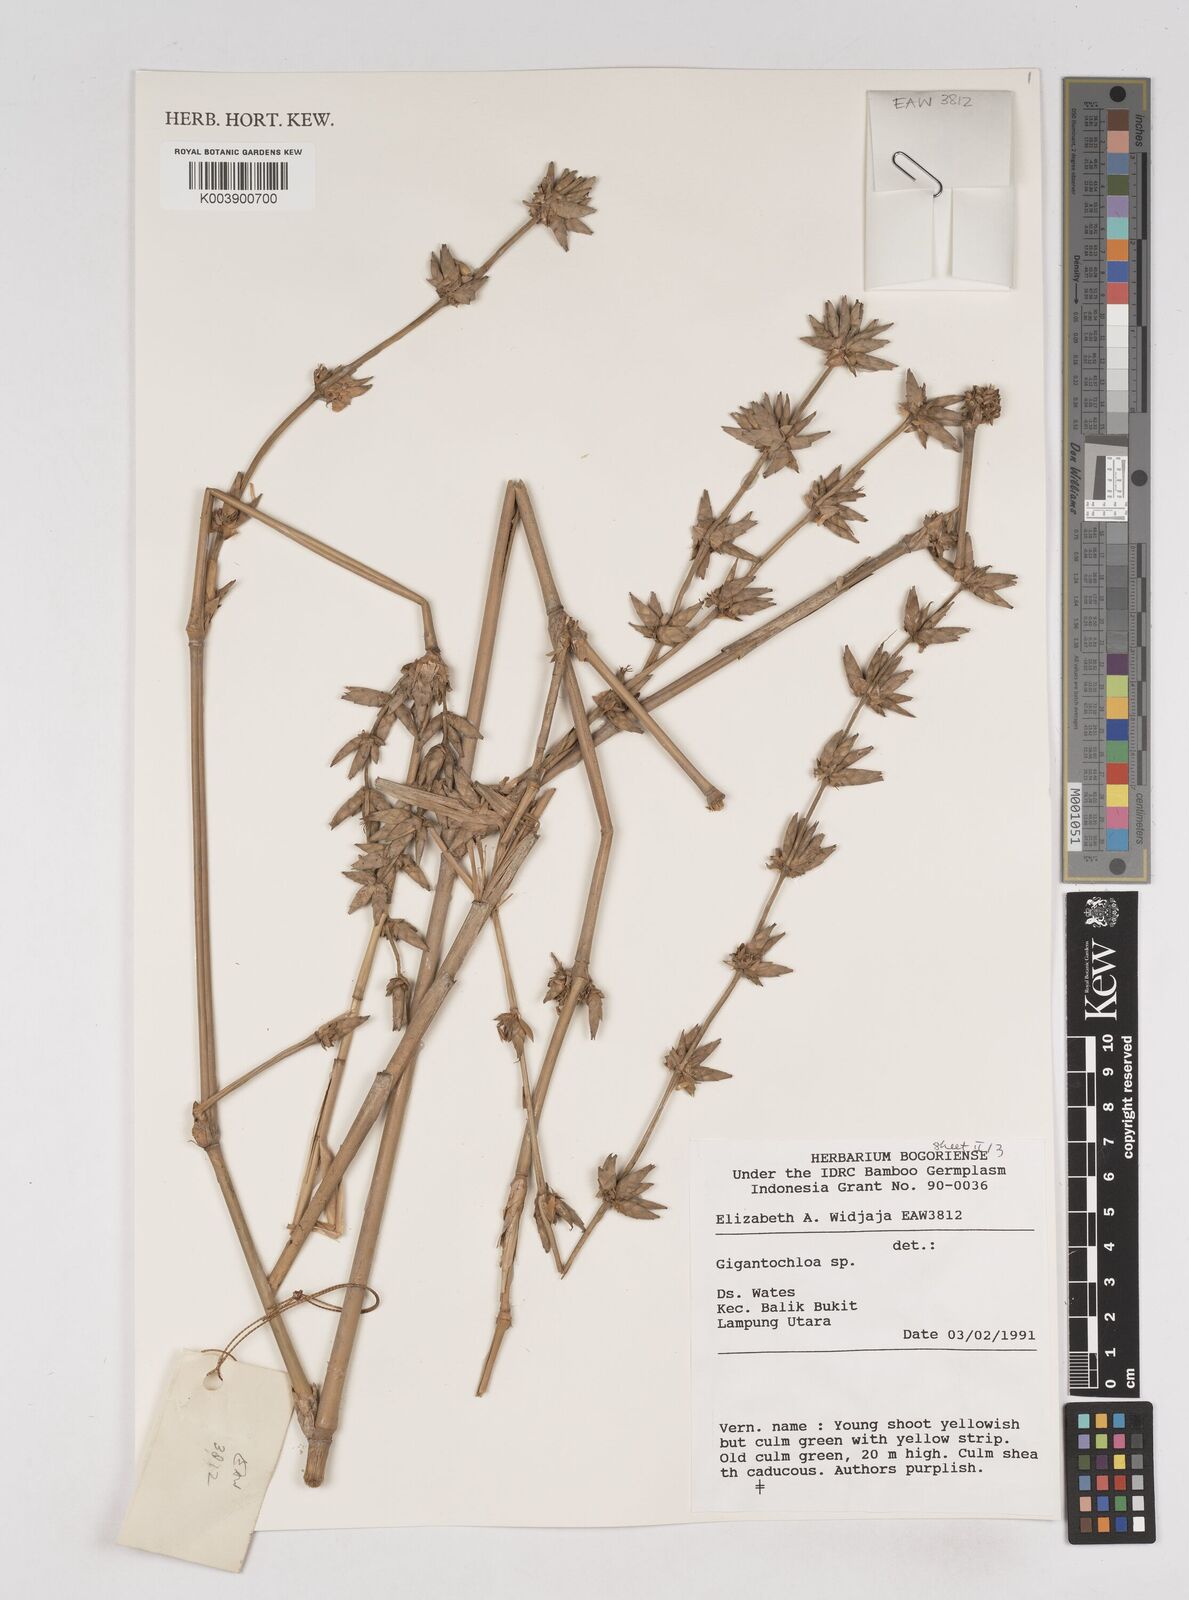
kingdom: Plantae
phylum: Tracheophyta
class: Liliopsida
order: Poales
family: Poaceae
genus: Gigantochloa
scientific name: Gigantochloa
